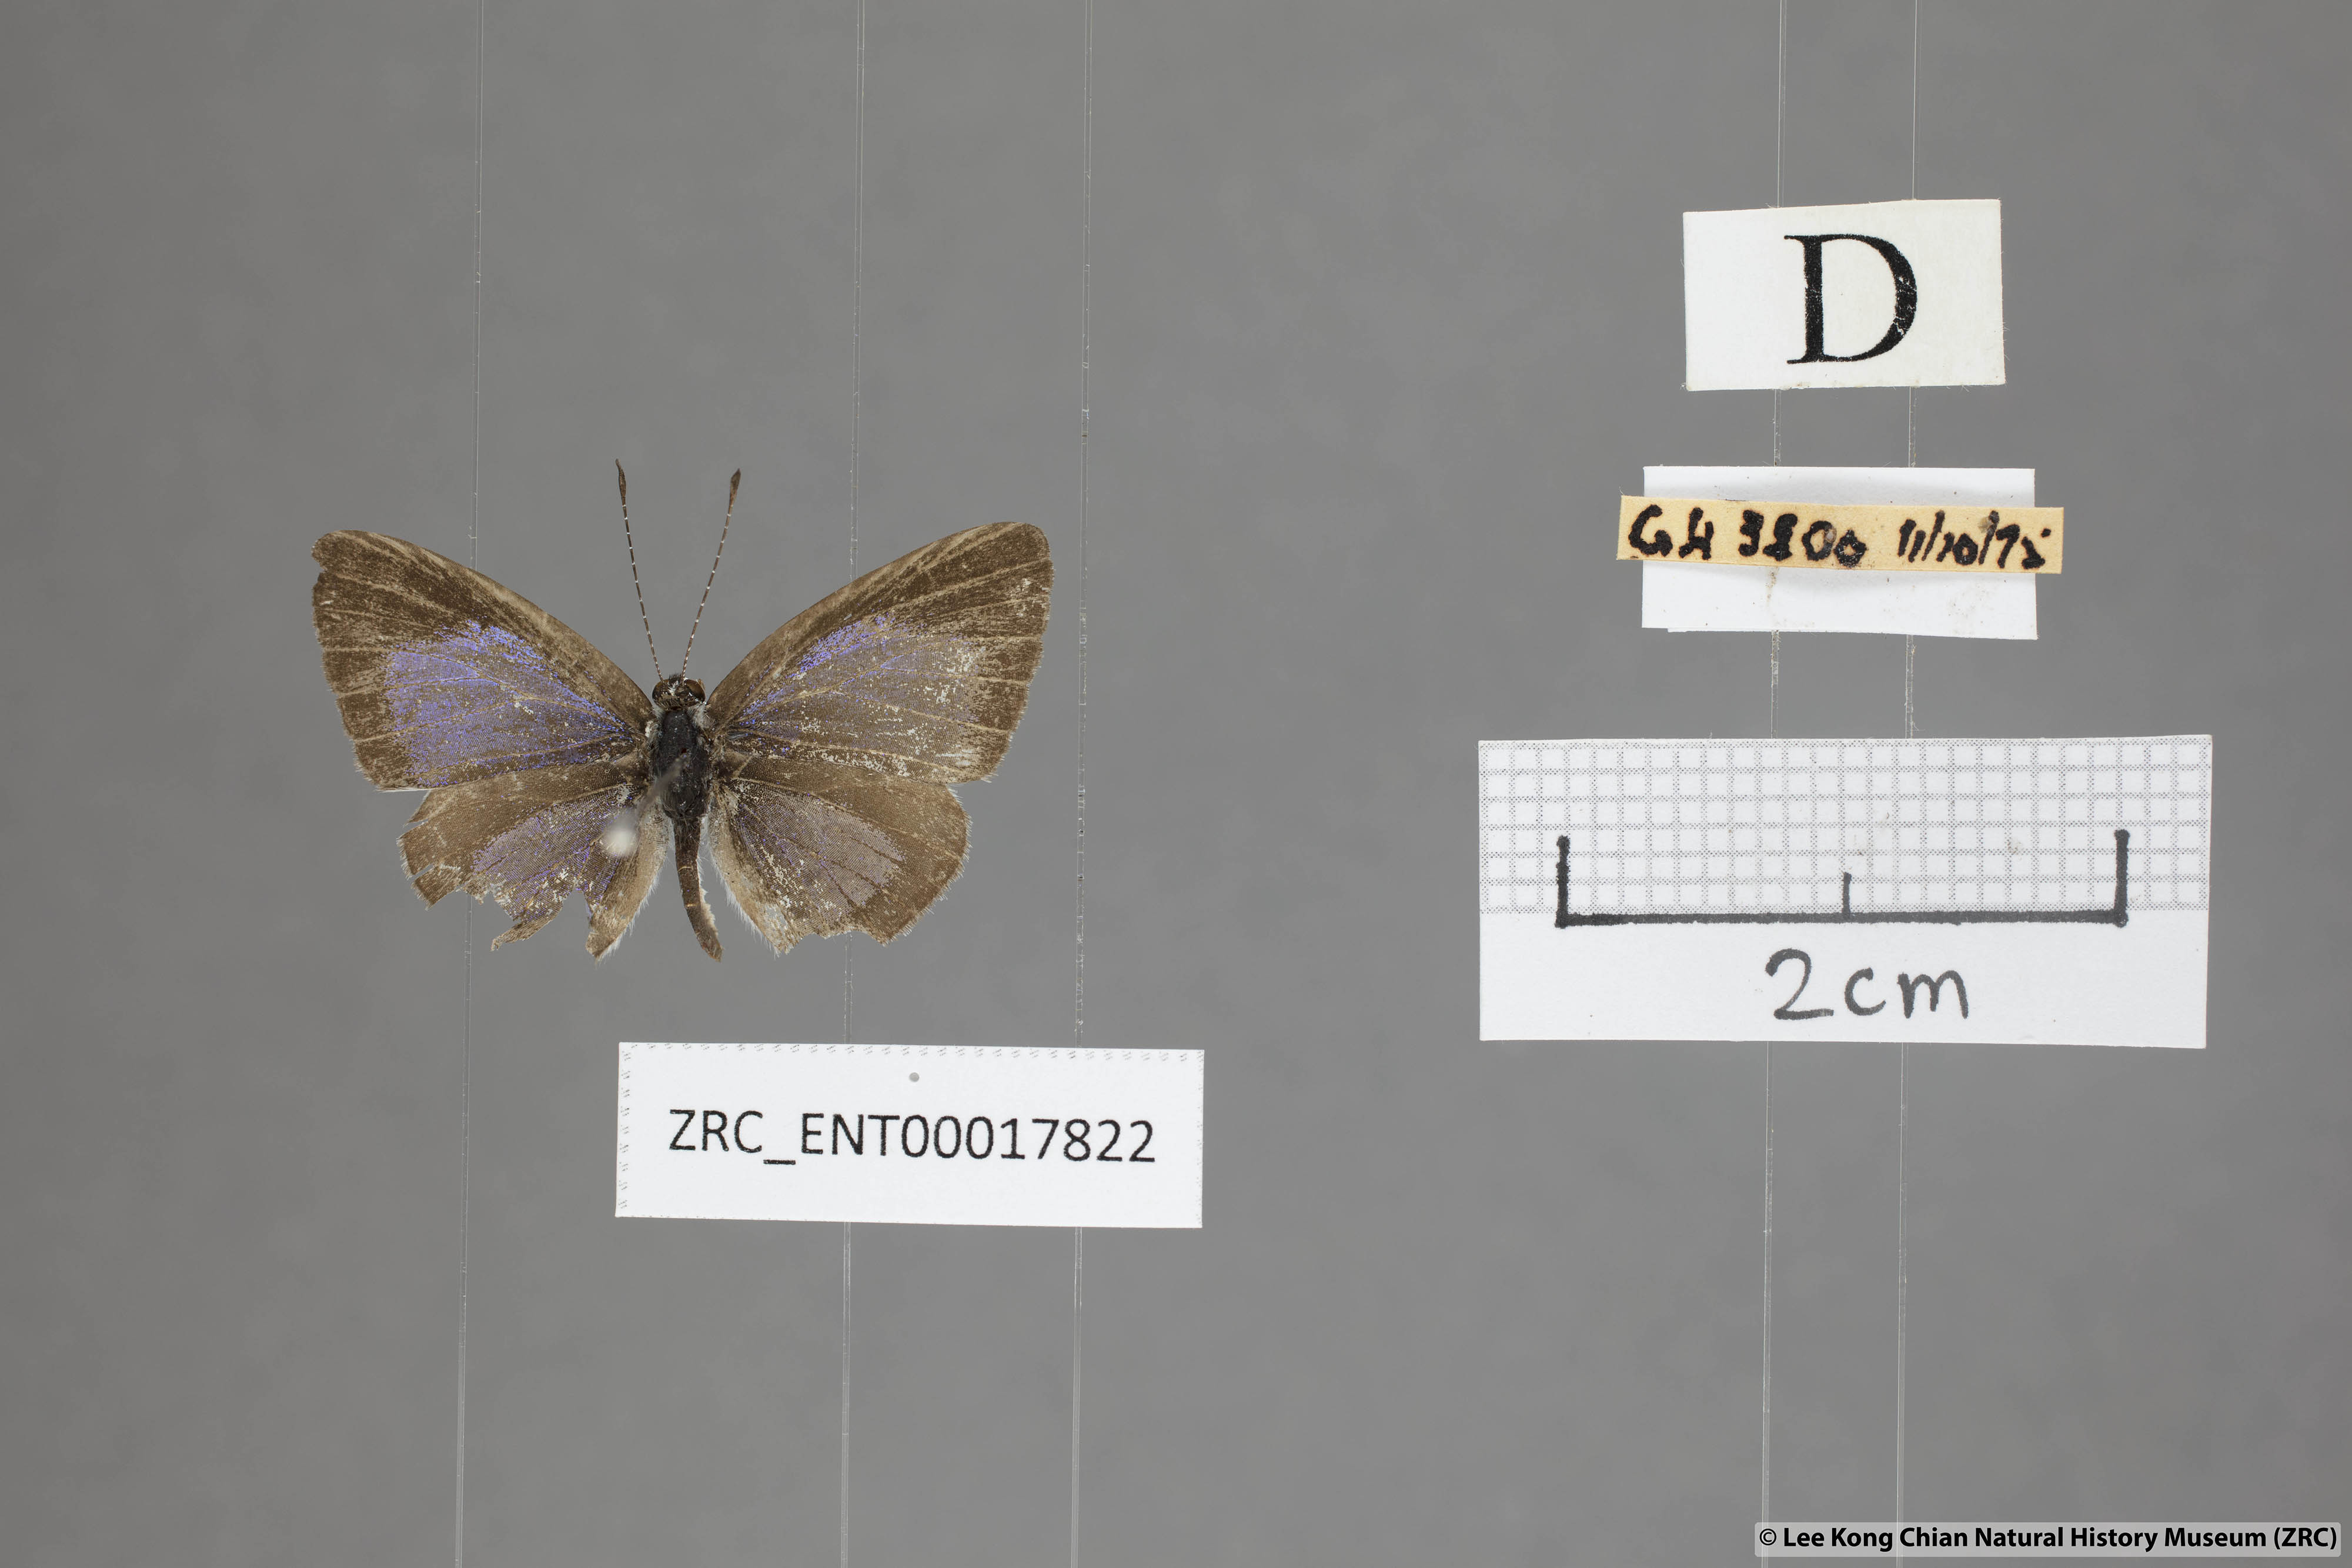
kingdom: Animalia
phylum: Arthropoda
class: Insecta
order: Lepidoptera
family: Lycaenidae
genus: Cebrella
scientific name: Cebrella
